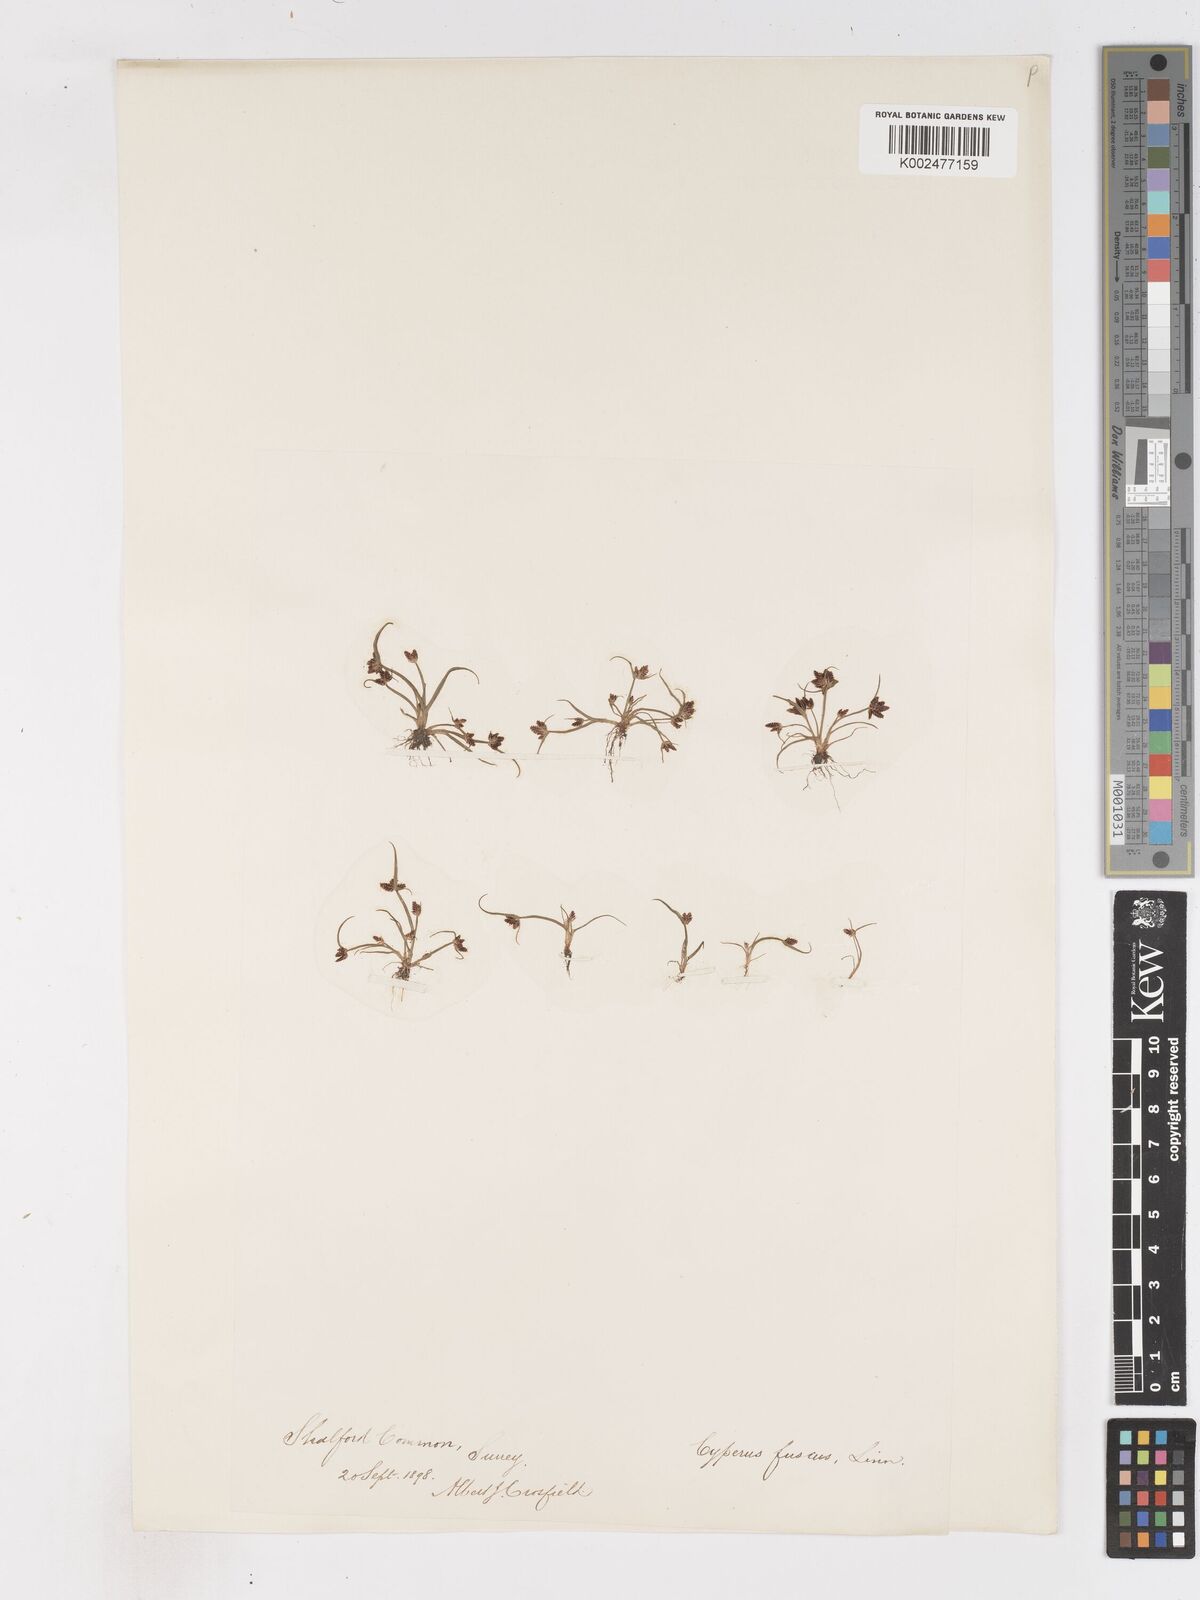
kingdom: Plantae
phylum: Tracheophyta
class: Liliopsida
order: Poales
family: Cyperaceae
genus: Cyperus
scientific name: Cyperus fuscus
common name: Brown galingale
